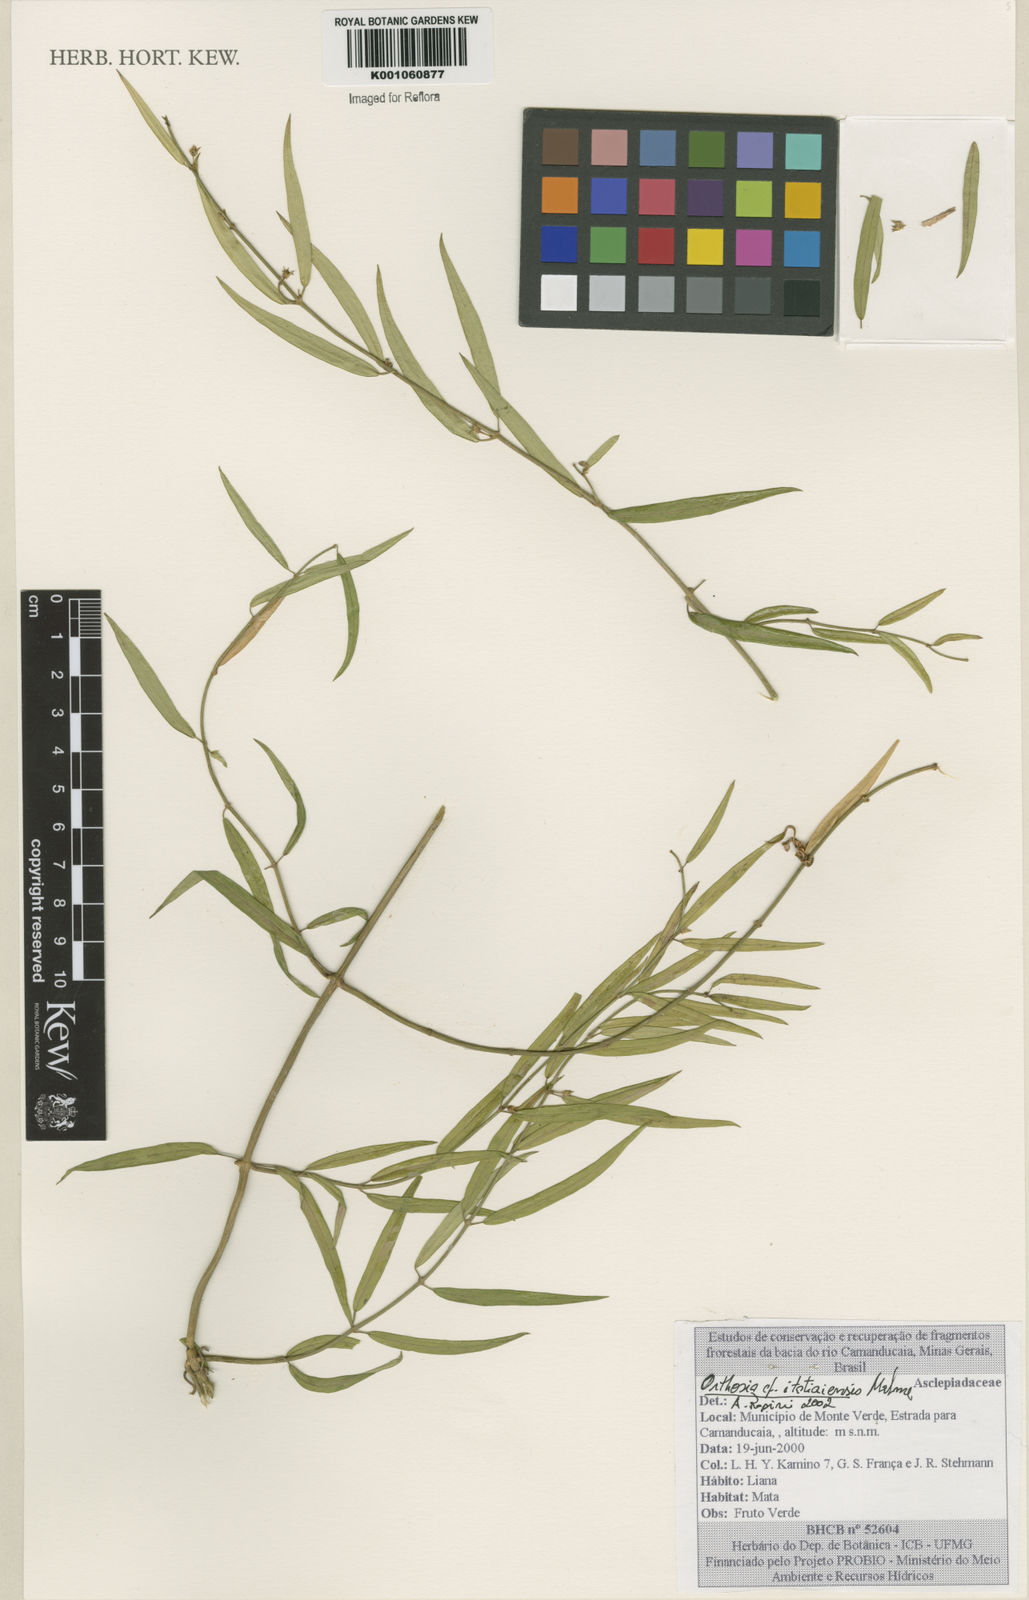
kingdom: Plantae
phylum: Tracheophyta
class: Magnoliopsida
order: Gentianales
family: Apocynaceae
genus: Orthosia
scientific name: Orthosia itatiaiensis
